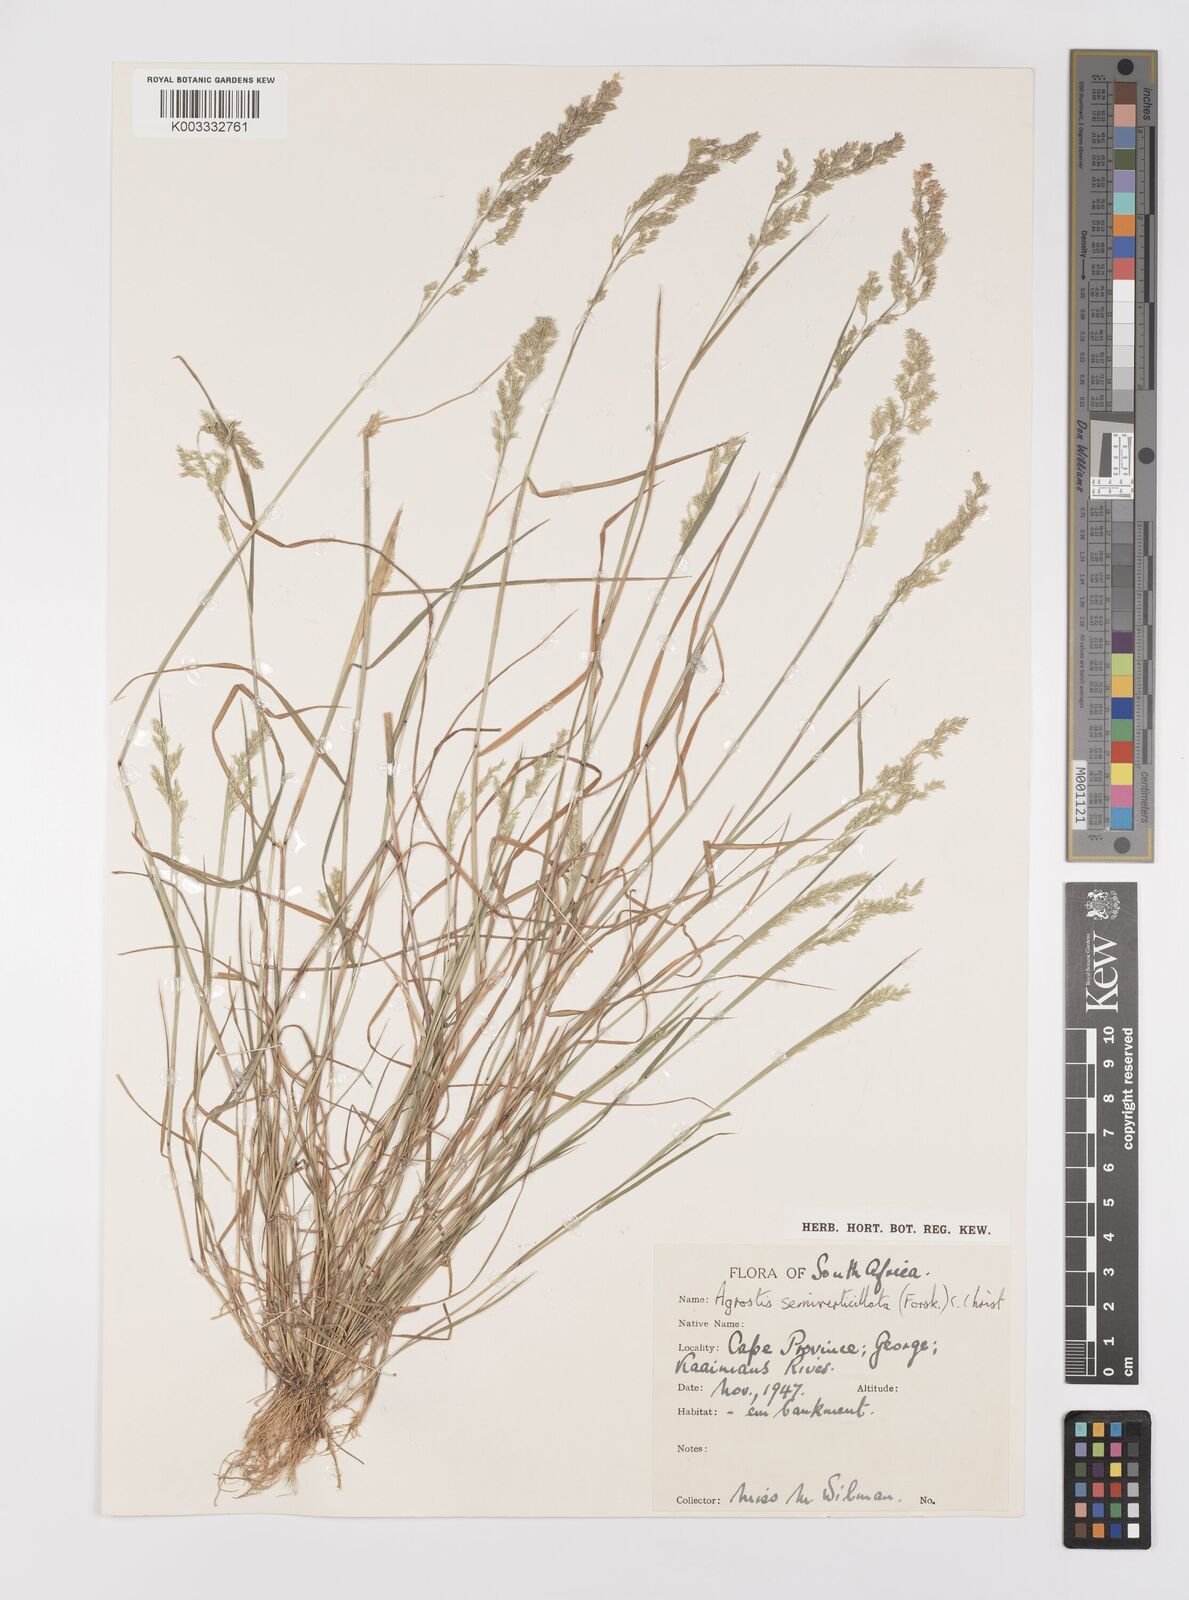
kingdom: Plantae
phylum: Tracheophyta
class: Liliopsida
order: Poales
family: Poaceae
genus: Polypogon
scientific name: Polypogon viridis
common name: Water bent
